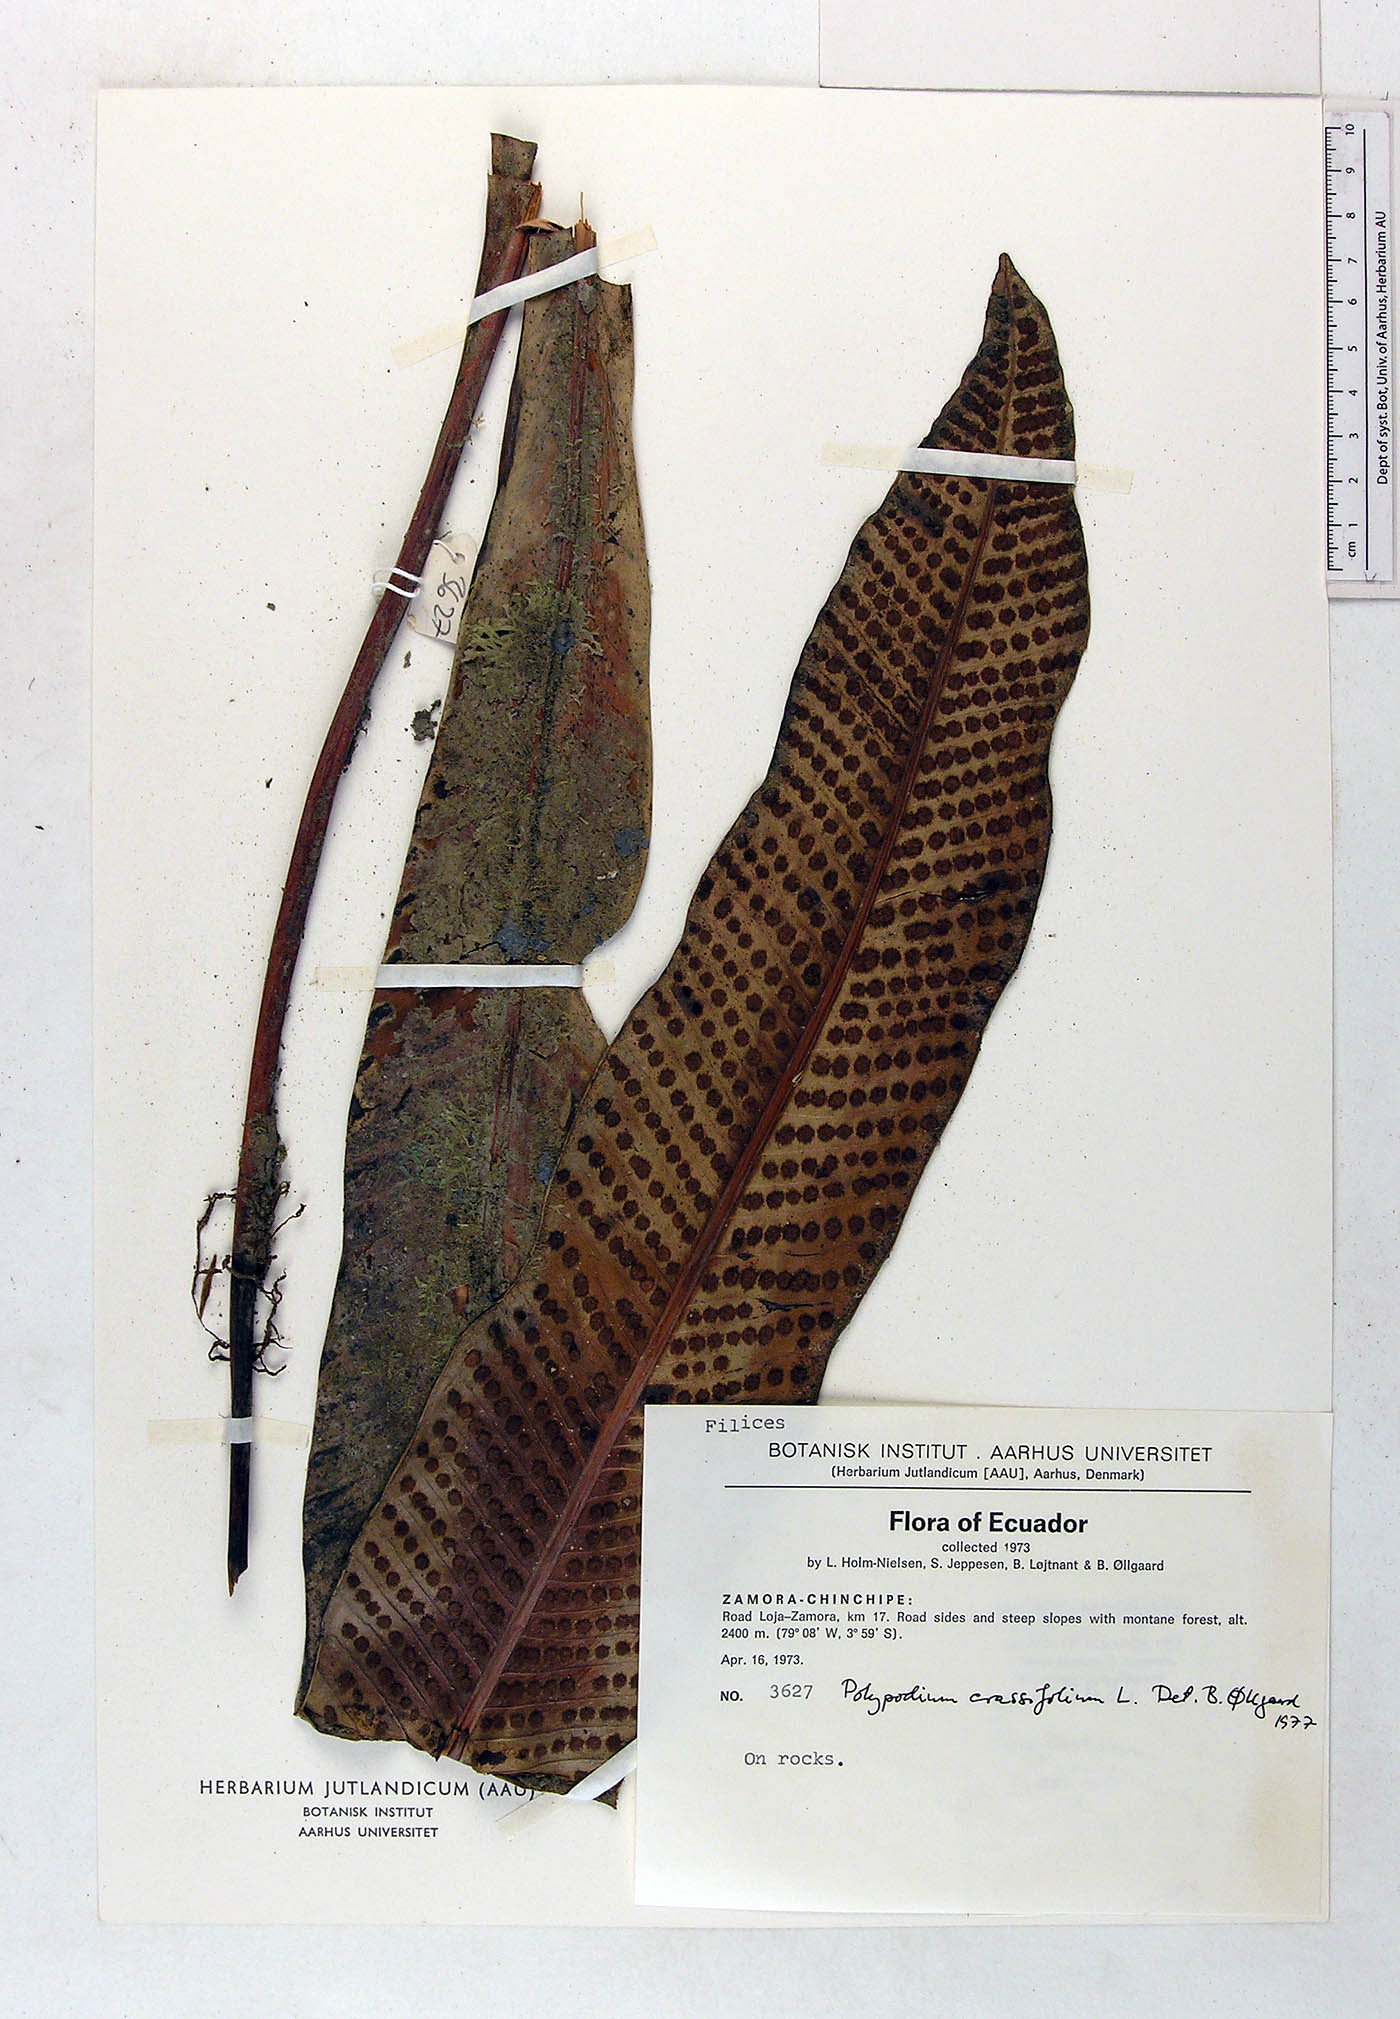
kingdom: Plantae
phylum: Tracheophyta
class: Polypodiopsida
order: Polypodiales
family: Polypodiaceae
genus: Niphidium
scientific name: Niphidium crassifolium
